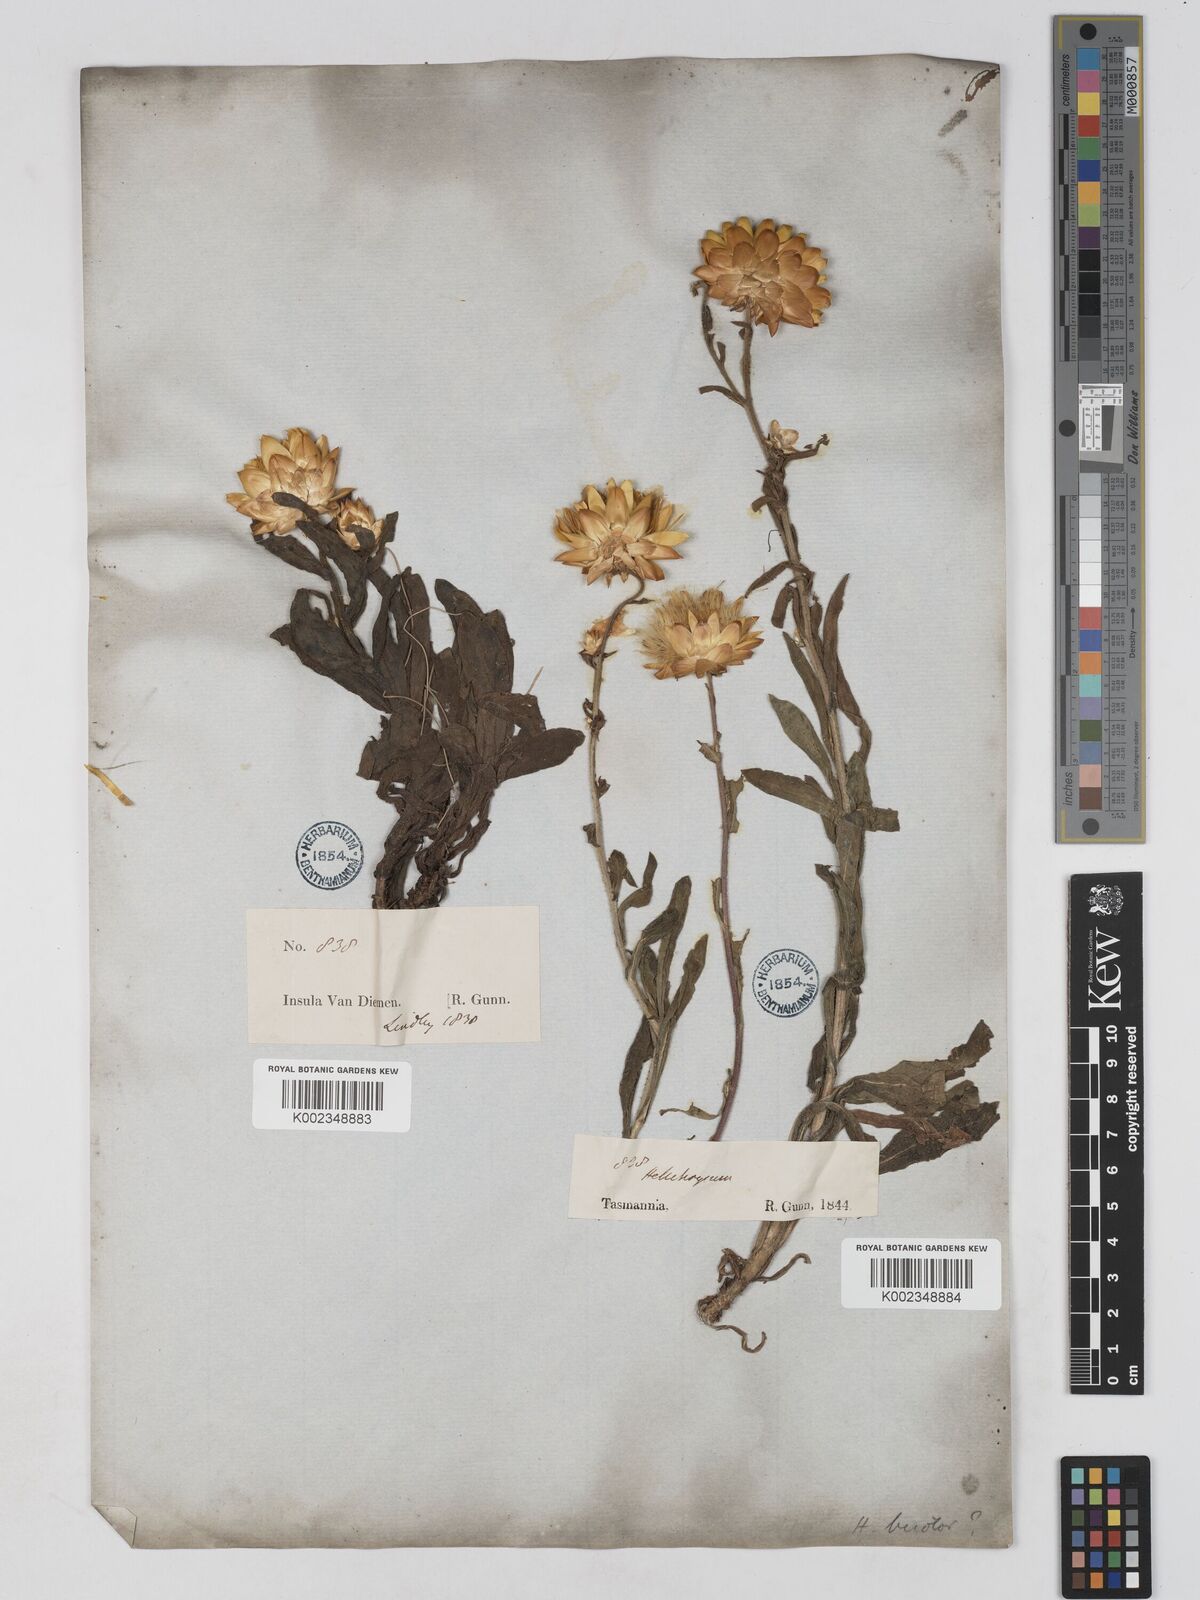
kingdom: Plantae
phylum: Tracheophyta
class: Magnoliopsida
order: Asterales
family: Asteraceae
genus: Xerochrysum
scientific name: Xerochrysum bracteatum
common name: Bracted strawflower
